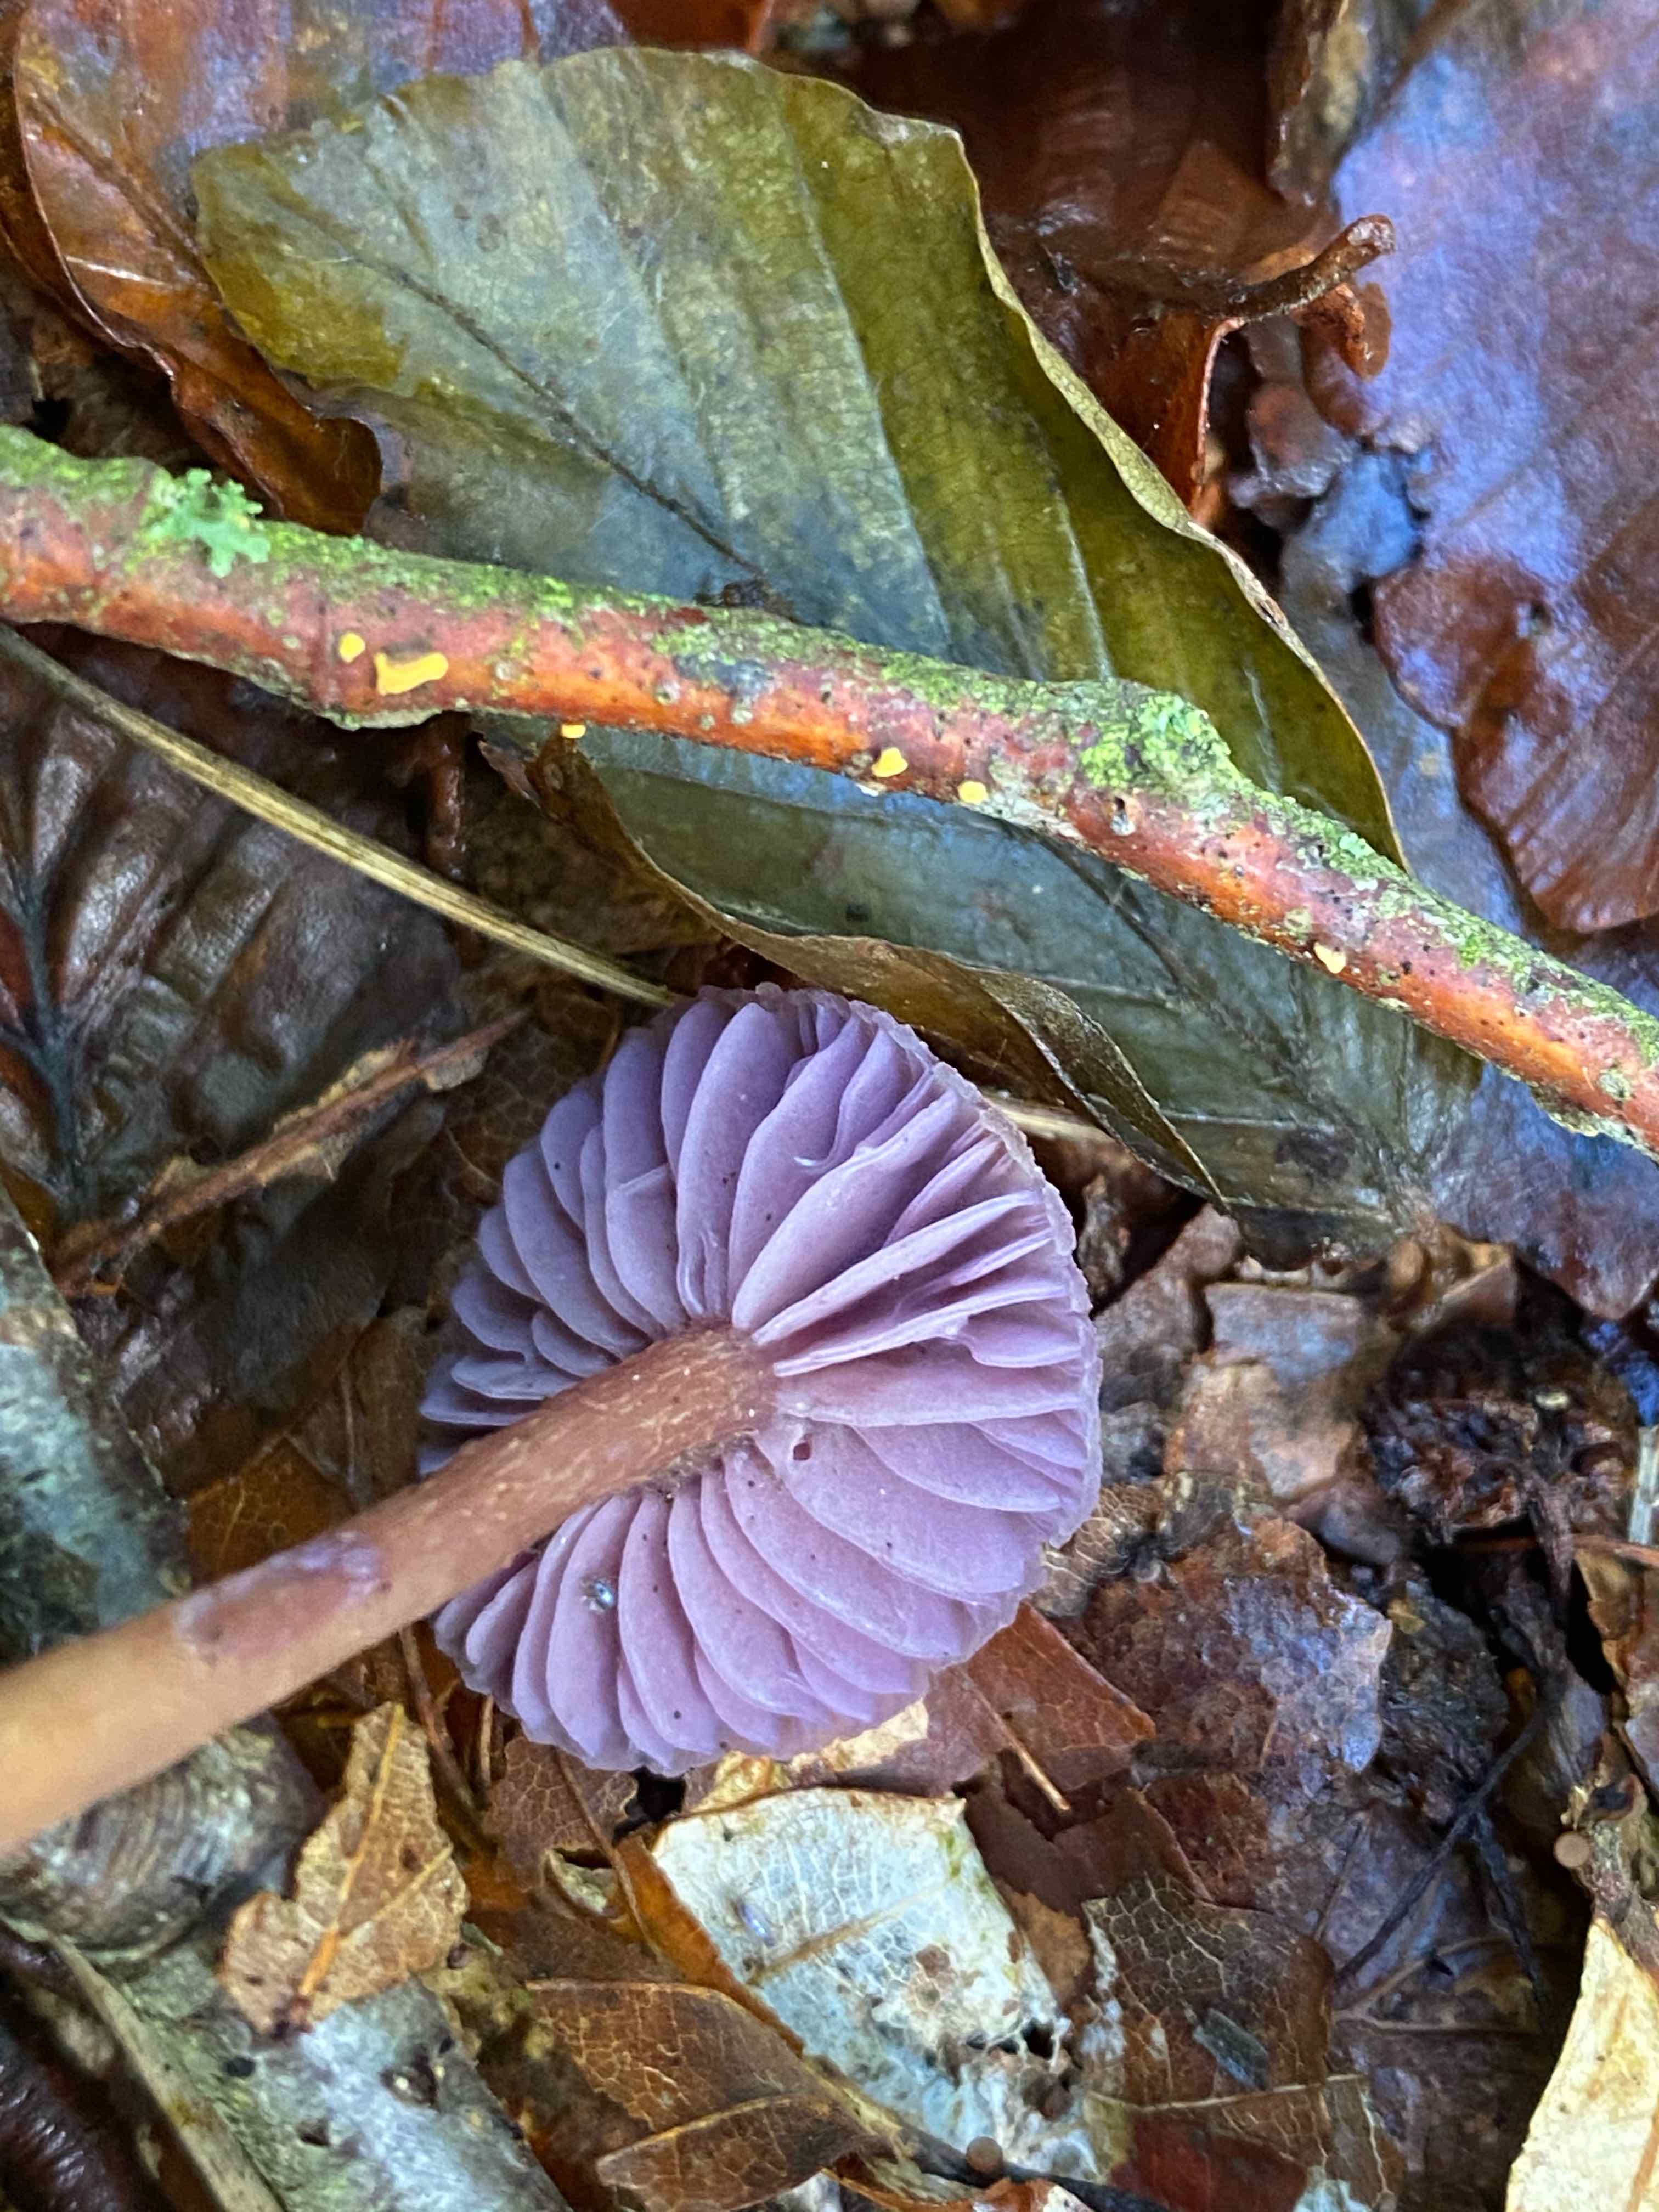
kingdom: Fungi
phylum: Basidiomycota
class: Agaricomycetes
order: Agaricales
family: Hydnangiaceae
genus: Laccaria
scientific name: Laccaria amethystina
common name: violet ametysthat
